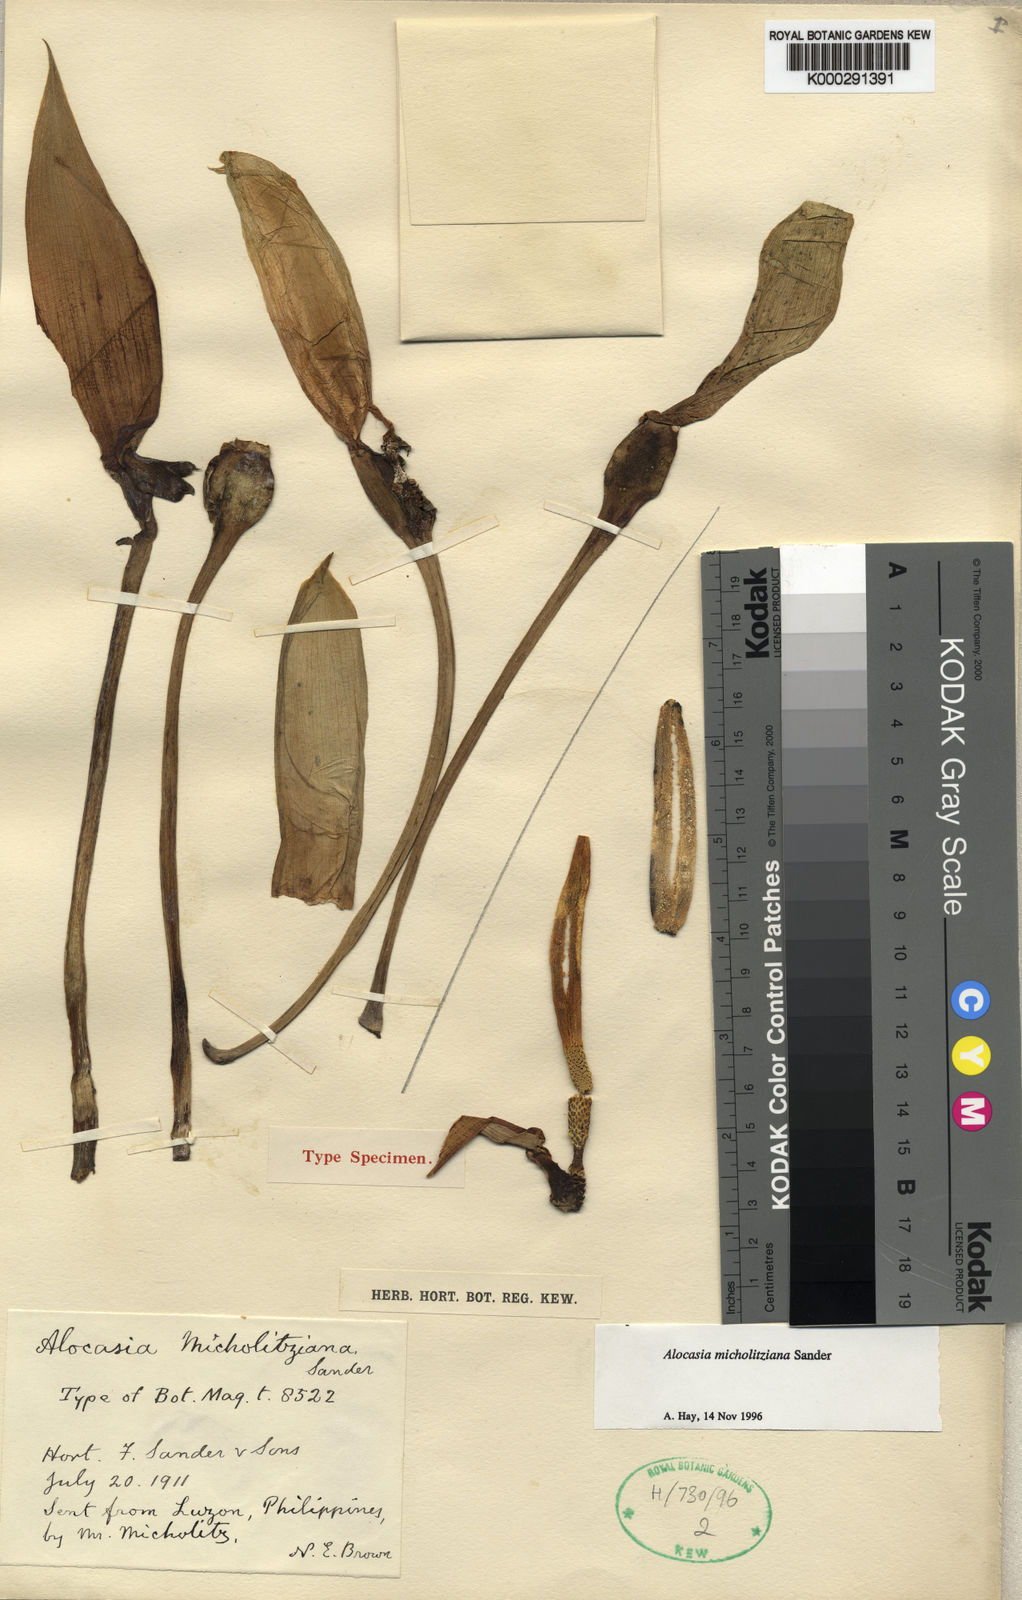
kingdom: Plantae
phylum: Tracheophyta
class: Liliopsida
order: Alismatales
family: Araceae
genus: Alocasia
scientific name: Alocasia micholitziana
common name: Green-velvet alocasia
